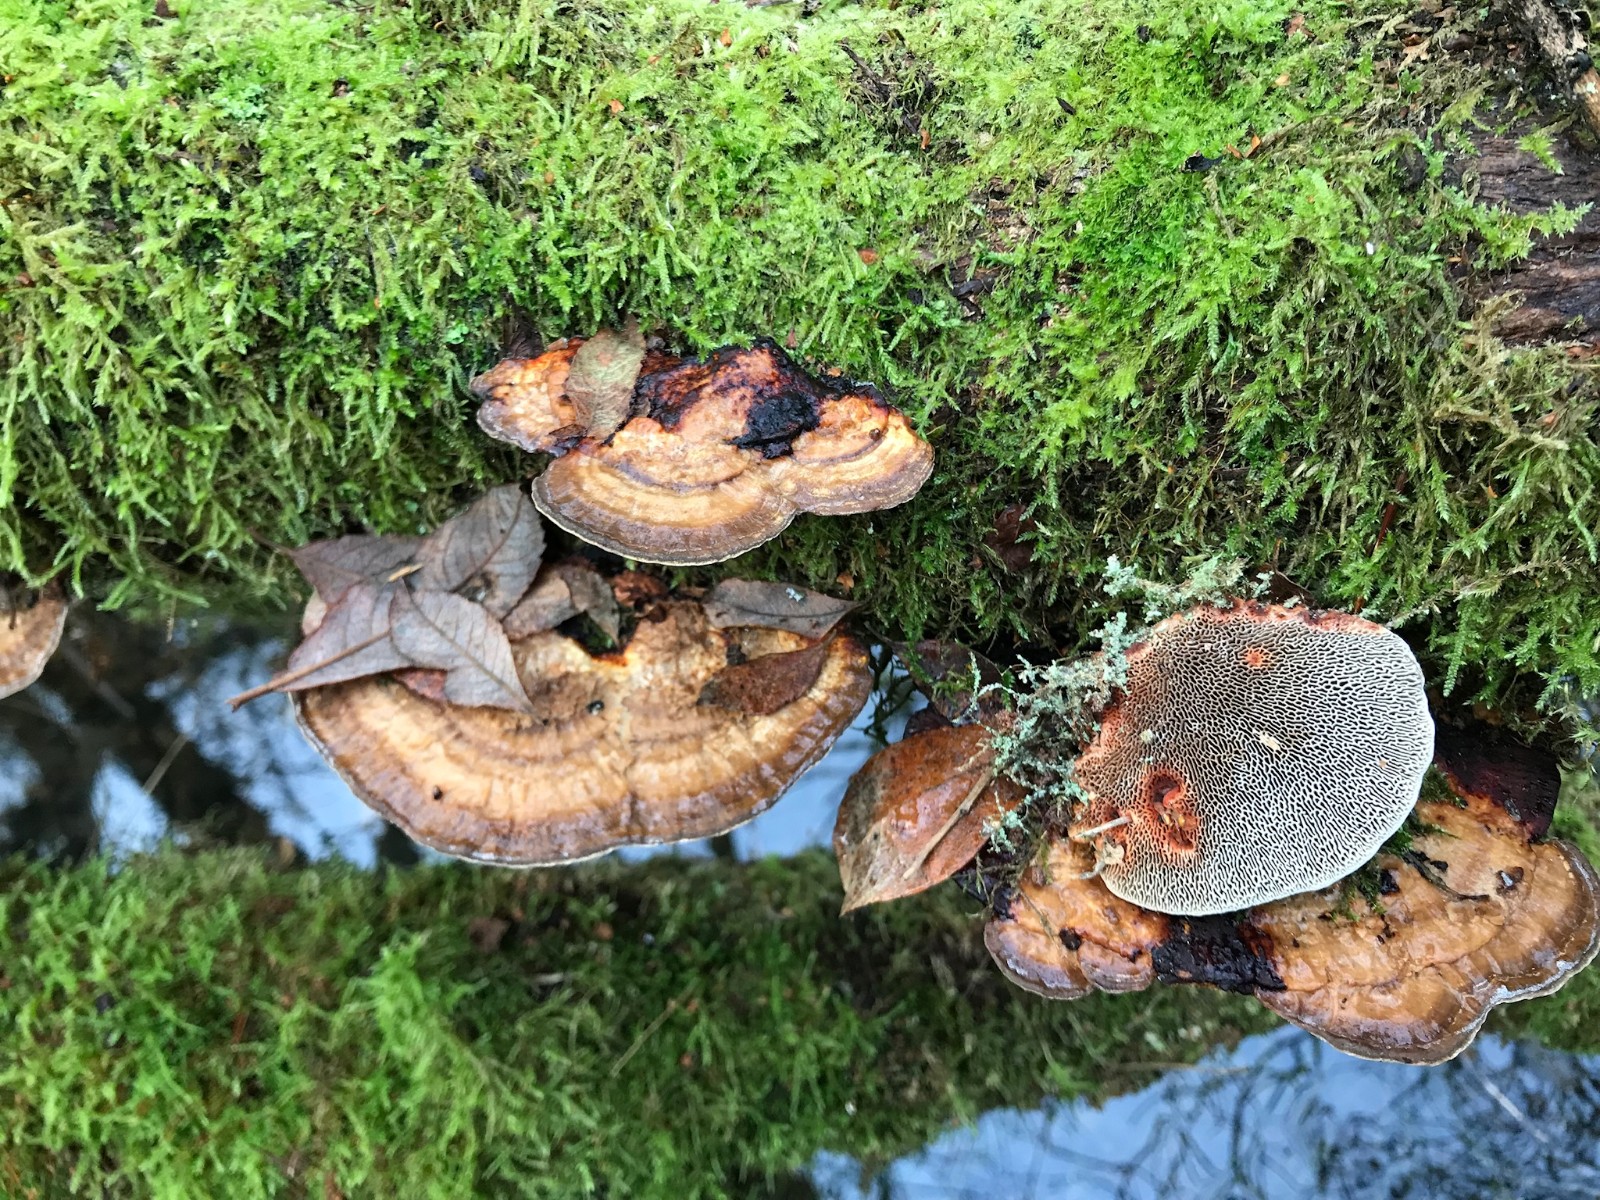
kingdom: Fungi
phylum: Basidiomycota
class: Agaricomycetes
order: Polyporales
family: Polyporaceae
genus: Daedaleopsis
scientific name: Daedaleopsis confragosa
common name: rødmende læderporesvamp
